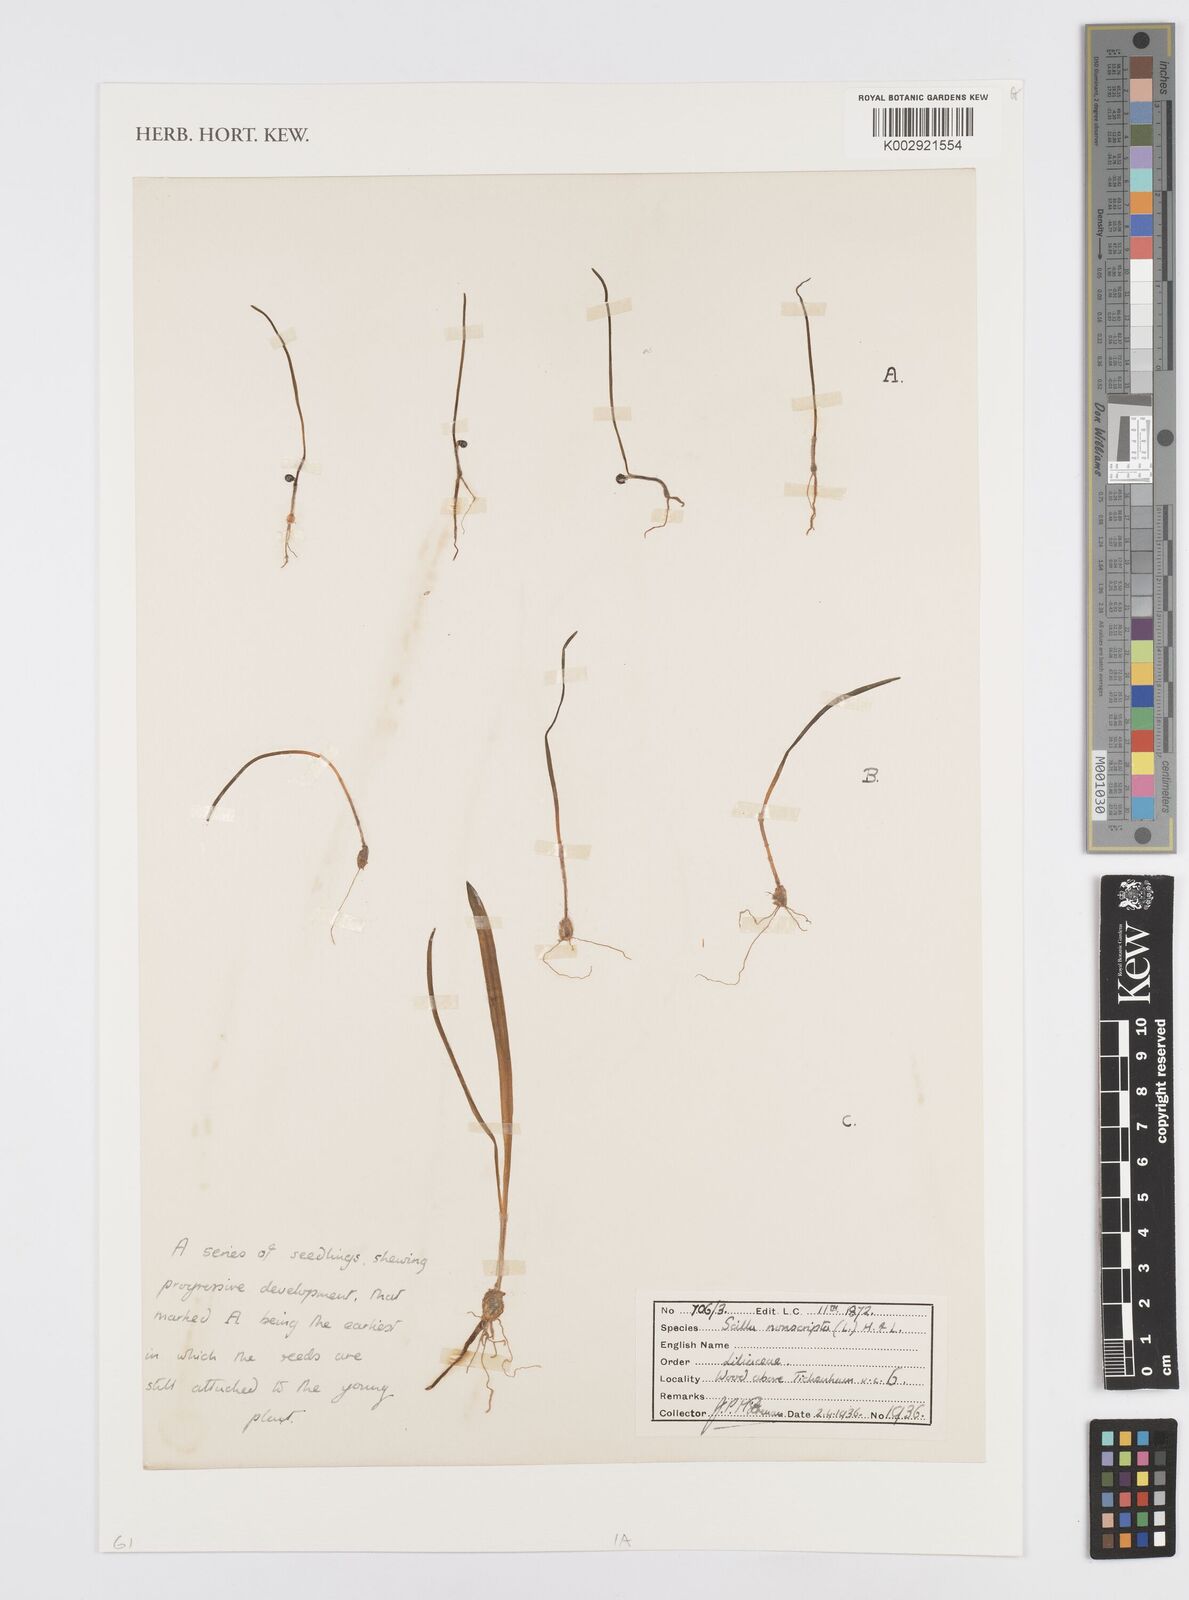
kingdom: Plantae
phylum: Tracheophyta
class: Liliopsida
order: Asparagales
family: Asparagaceae
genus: Hyacinthoides
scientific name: Hyacinthoides non-scripta
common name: Bluebell
